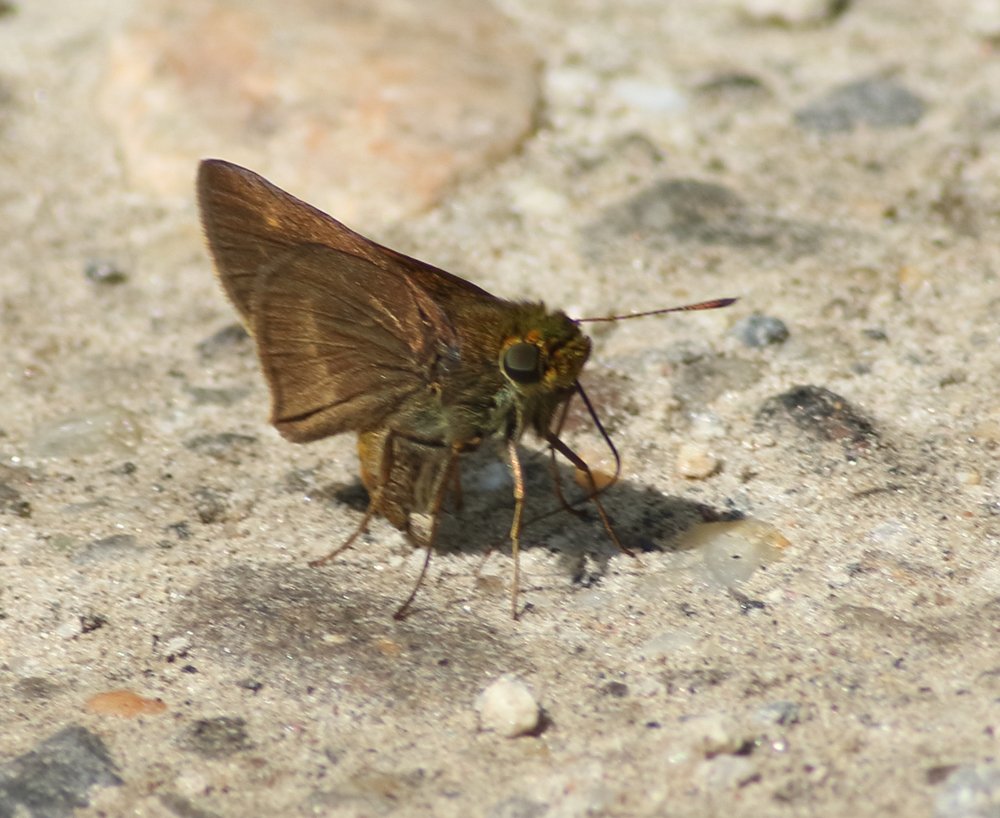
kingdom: Animalia
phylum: Arthropoda
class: Insecta
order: Lepidoptera
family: Hesperiidae
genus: Nastra
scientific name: Nastra lherminier
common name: Swarthy Skipper
